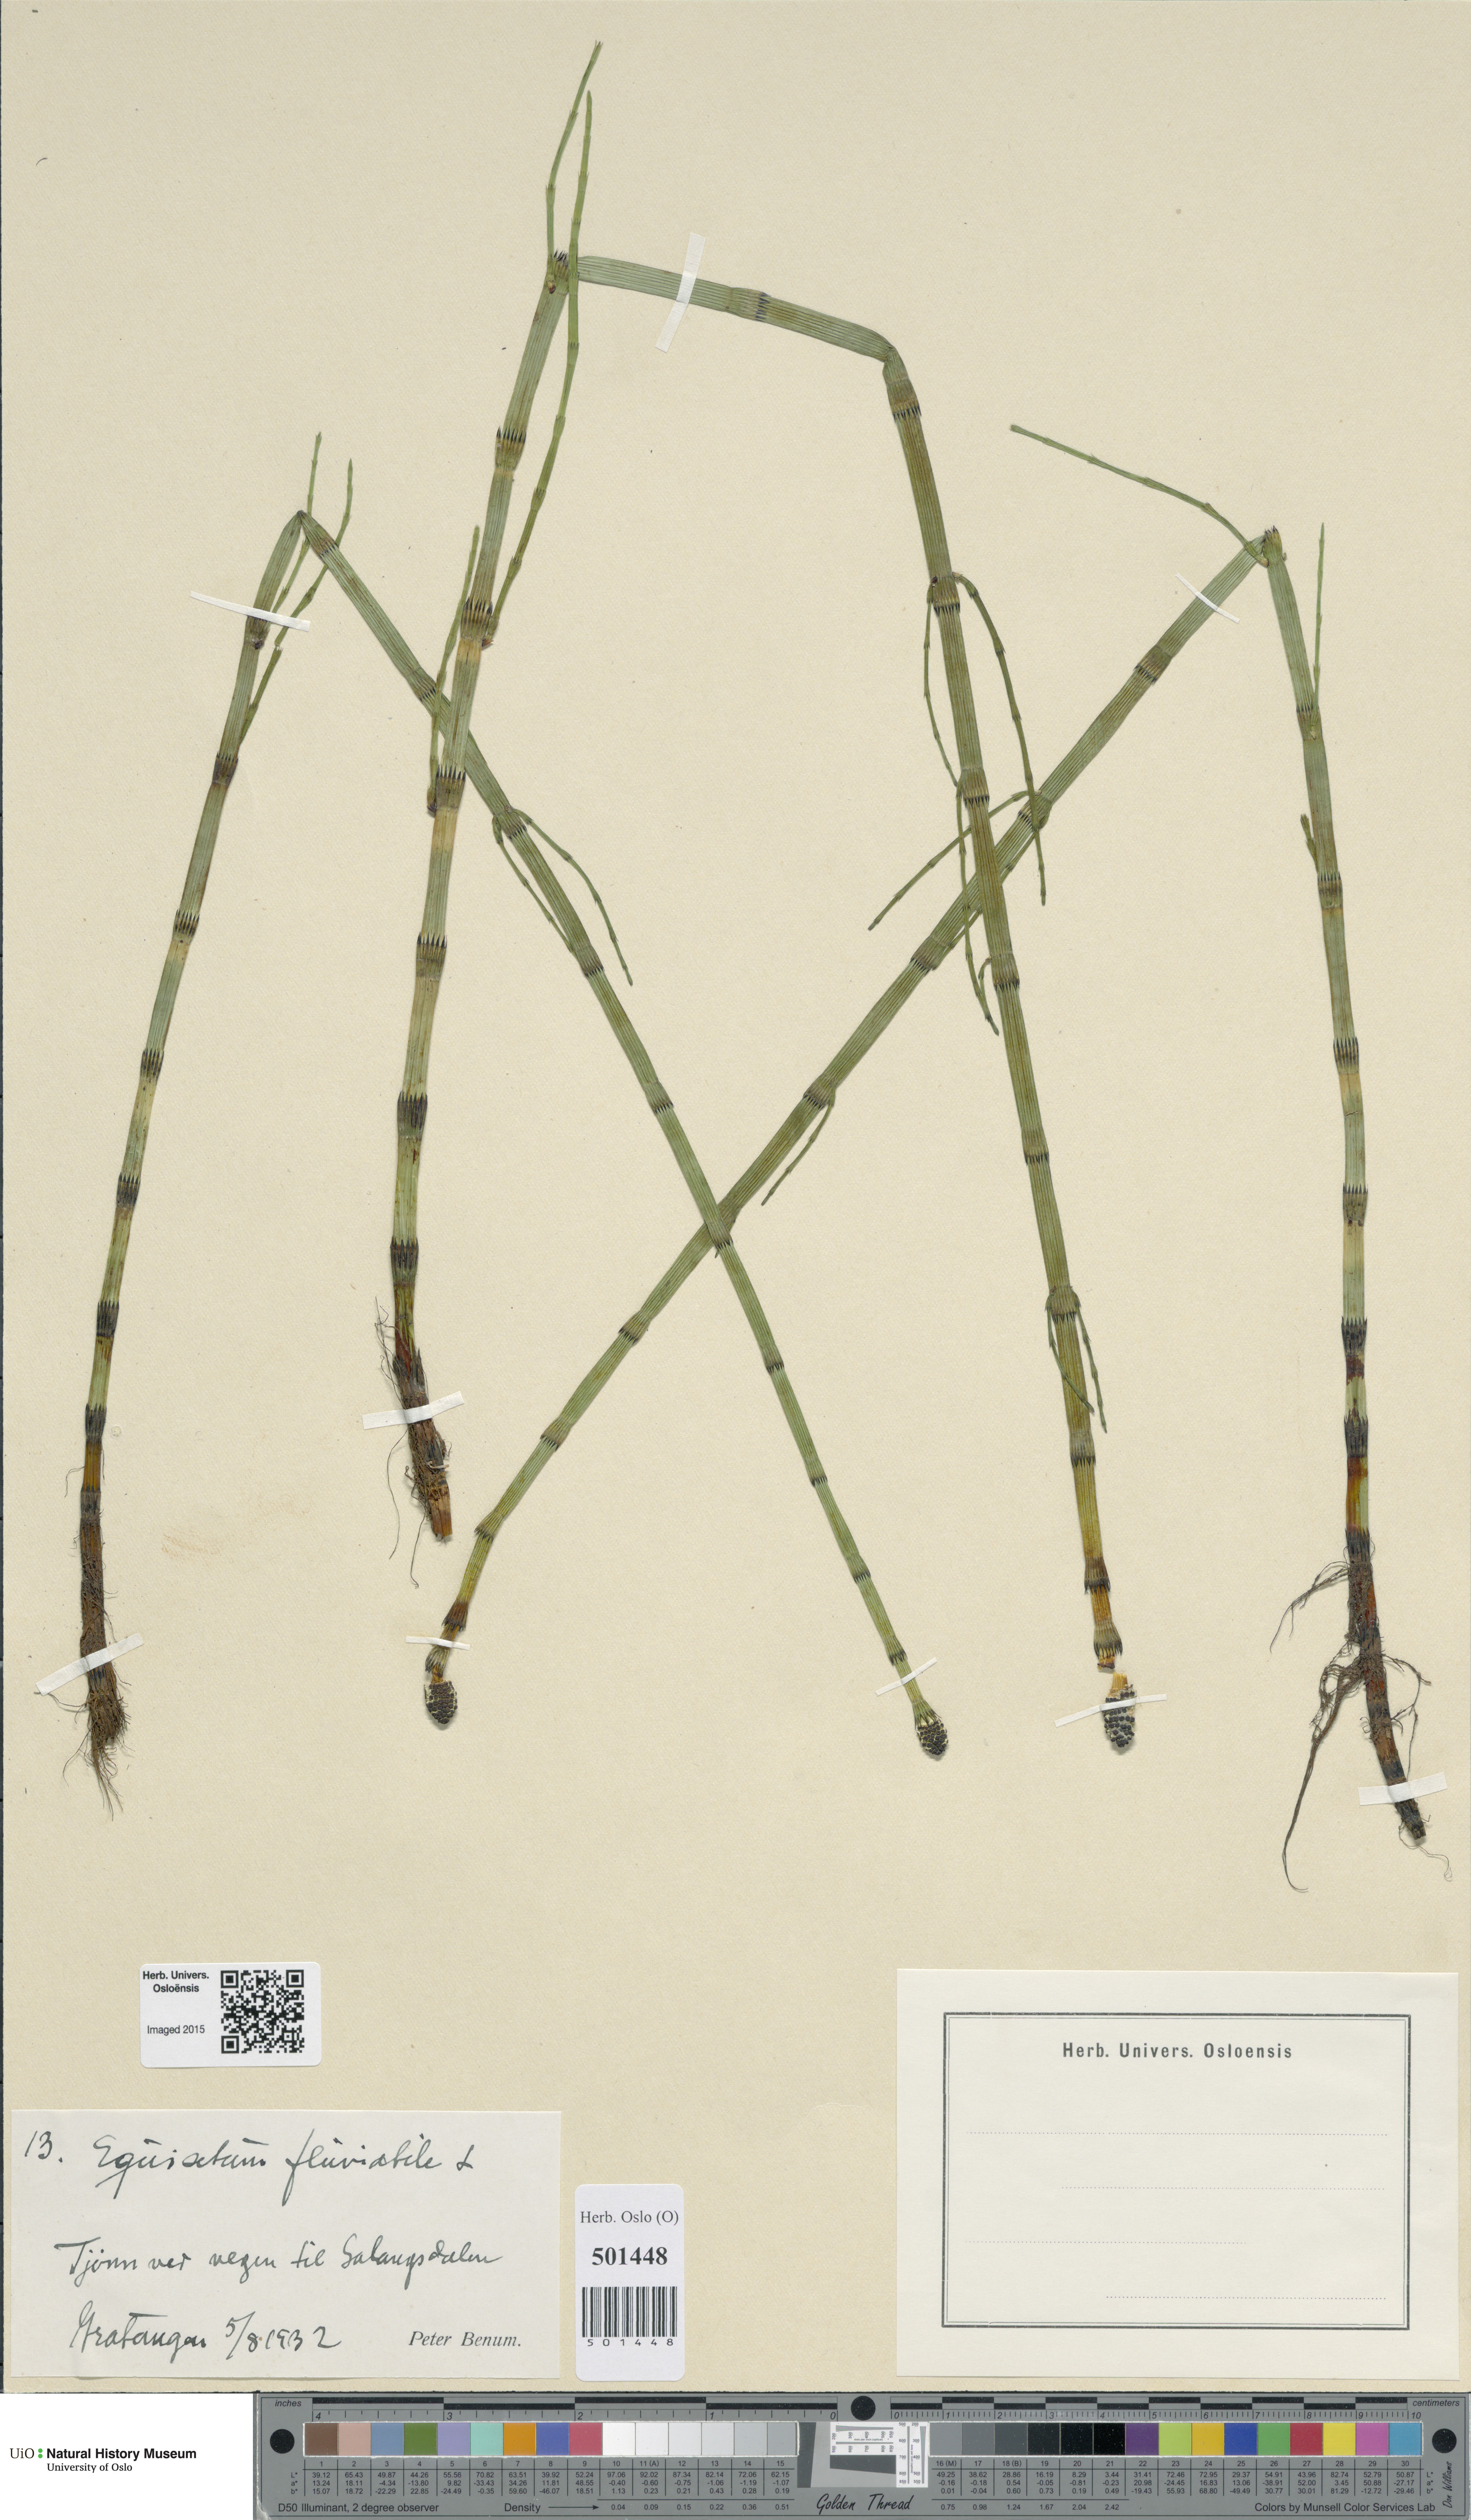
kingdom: Plantae
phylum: Tracheophyta
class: Polypodiopsida
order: Equisetales
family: Equisetaceae
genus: Equisetum
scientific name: Equisetum fluviatile
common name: Water horsetail
